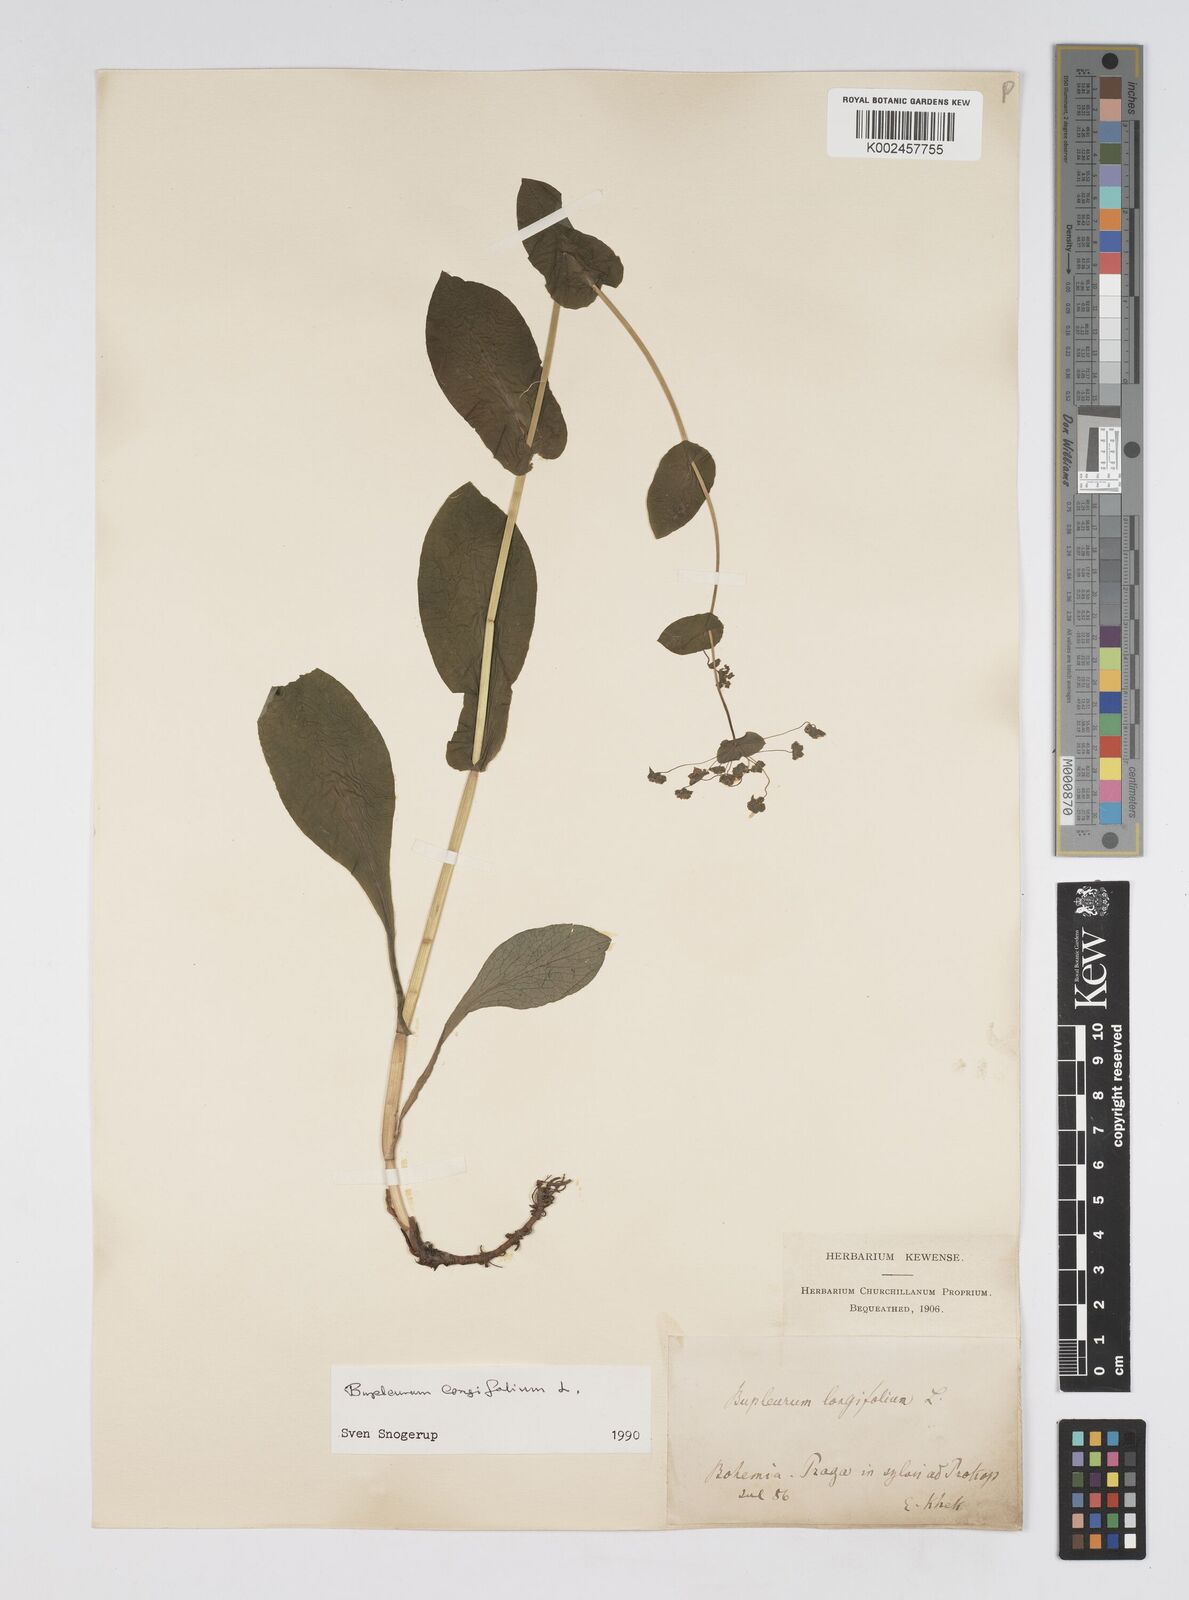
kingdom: Plantae
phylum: Tracheophyta
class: Magnoliopsida
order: Apiales
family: Apiaceae
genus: Bupleurum
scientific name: Bupleurum longifolium
